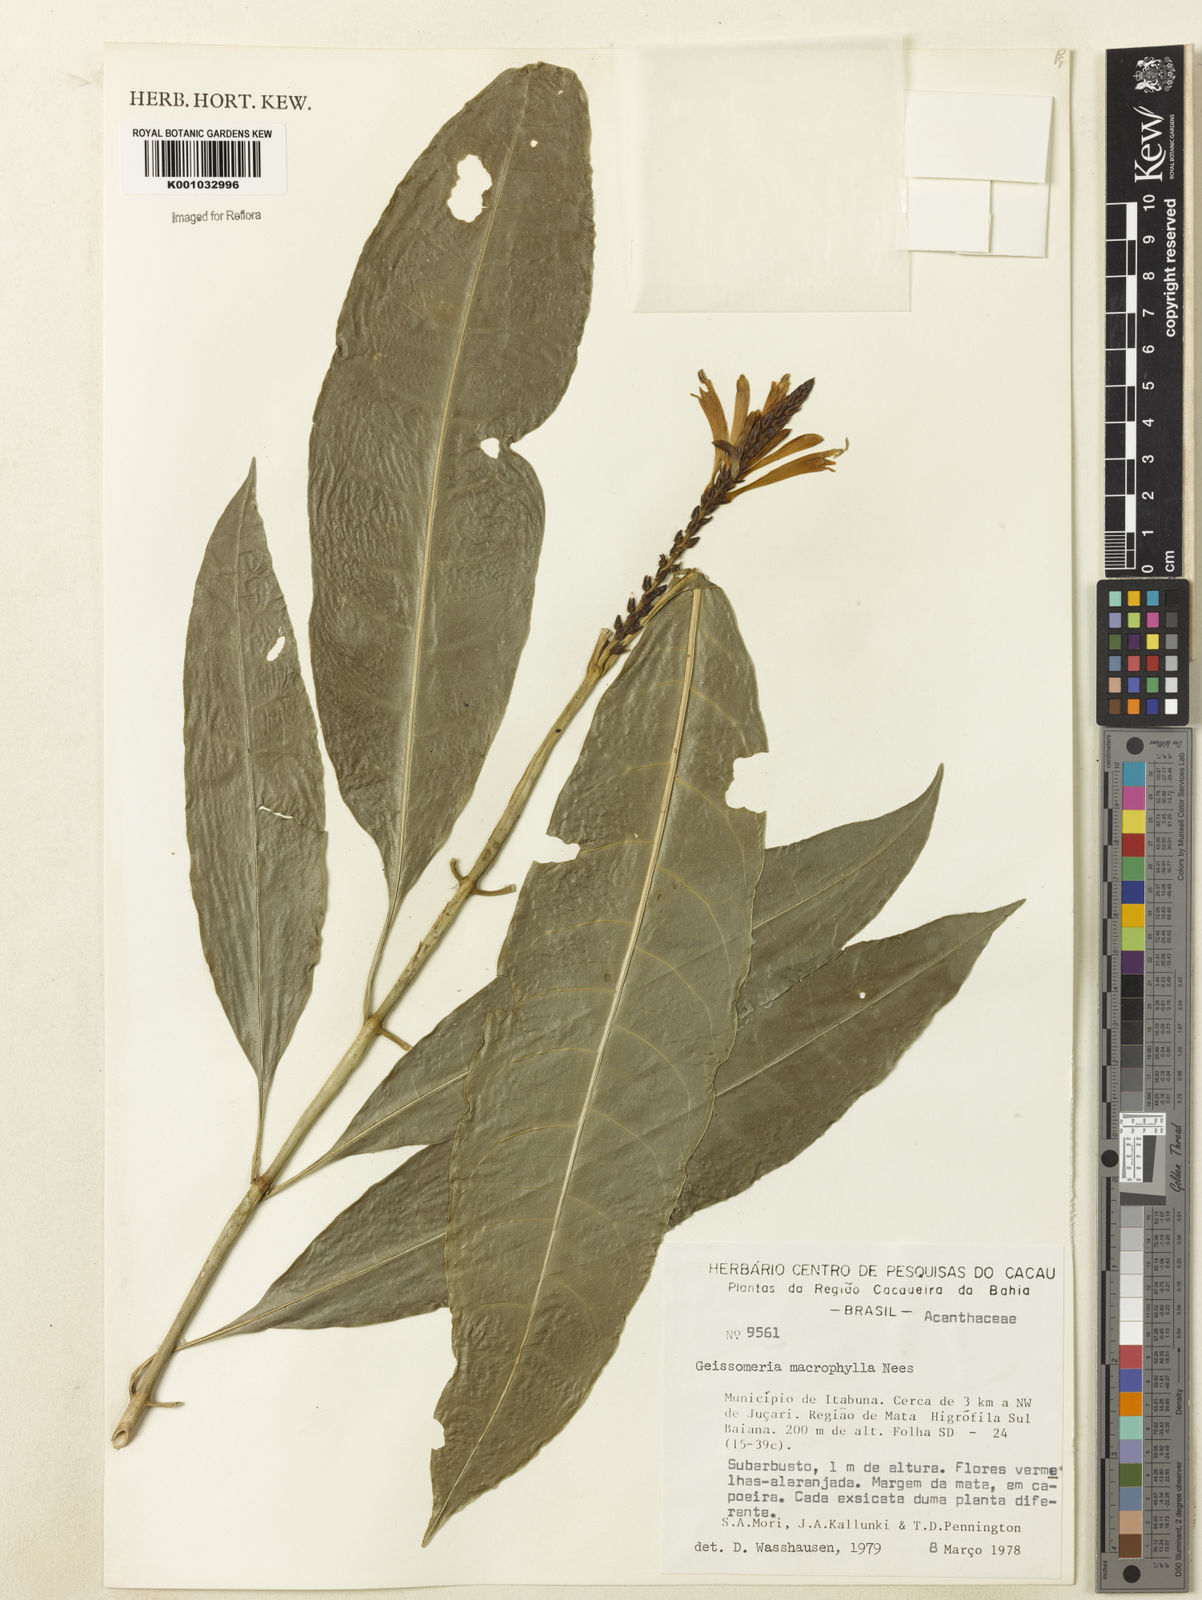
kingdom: Plantae
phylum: Tracheophyta
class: Magnoliopsida
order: Lamiales
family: Acanthaceae
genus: Aphelandra
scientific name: Aphelandra nitida
